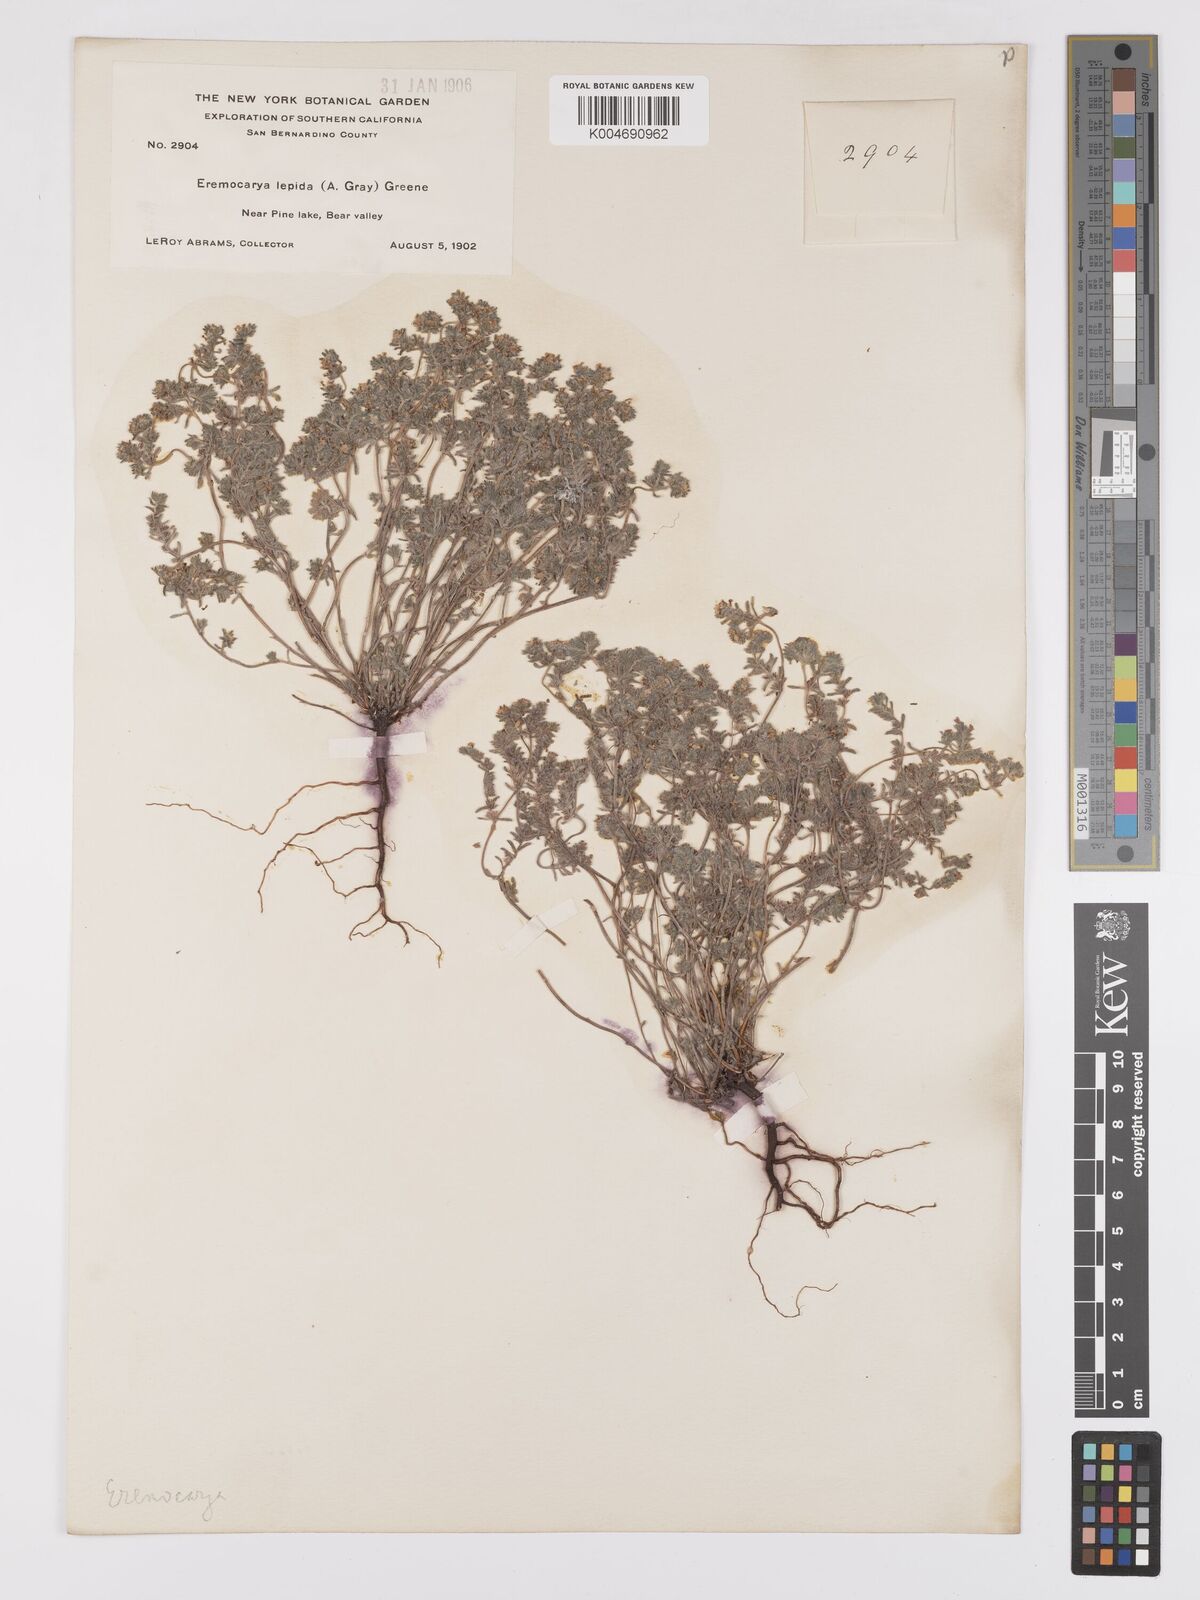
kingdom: Plantae
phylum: Tracheophyta
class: Magnoliopsida
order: Boraginales
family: Boraginaceae
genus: Eremocarya
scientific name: Eremocarya lepida
